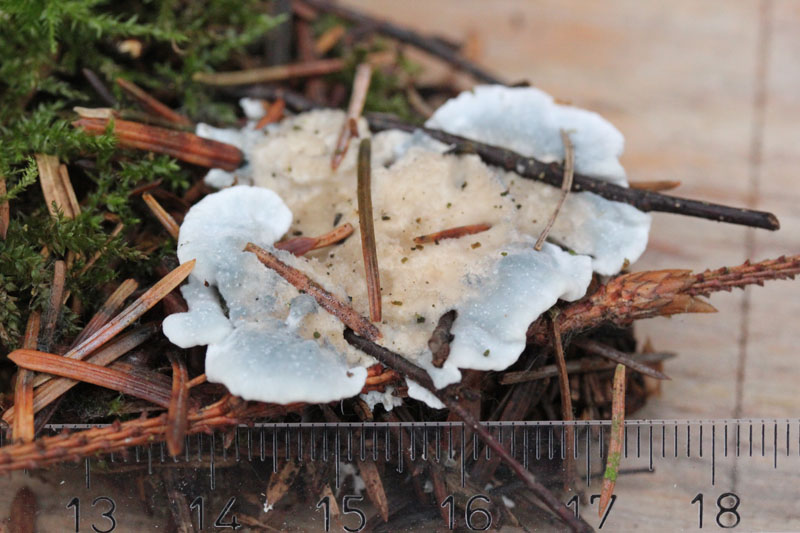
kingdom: Fungi
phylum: Basidiomycota
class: Agaricomycetes
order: Polyporales
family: Polyporaceae
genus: Cyanosporus
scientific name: Cyanosporus caesius
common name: blålig kødporesvamp
